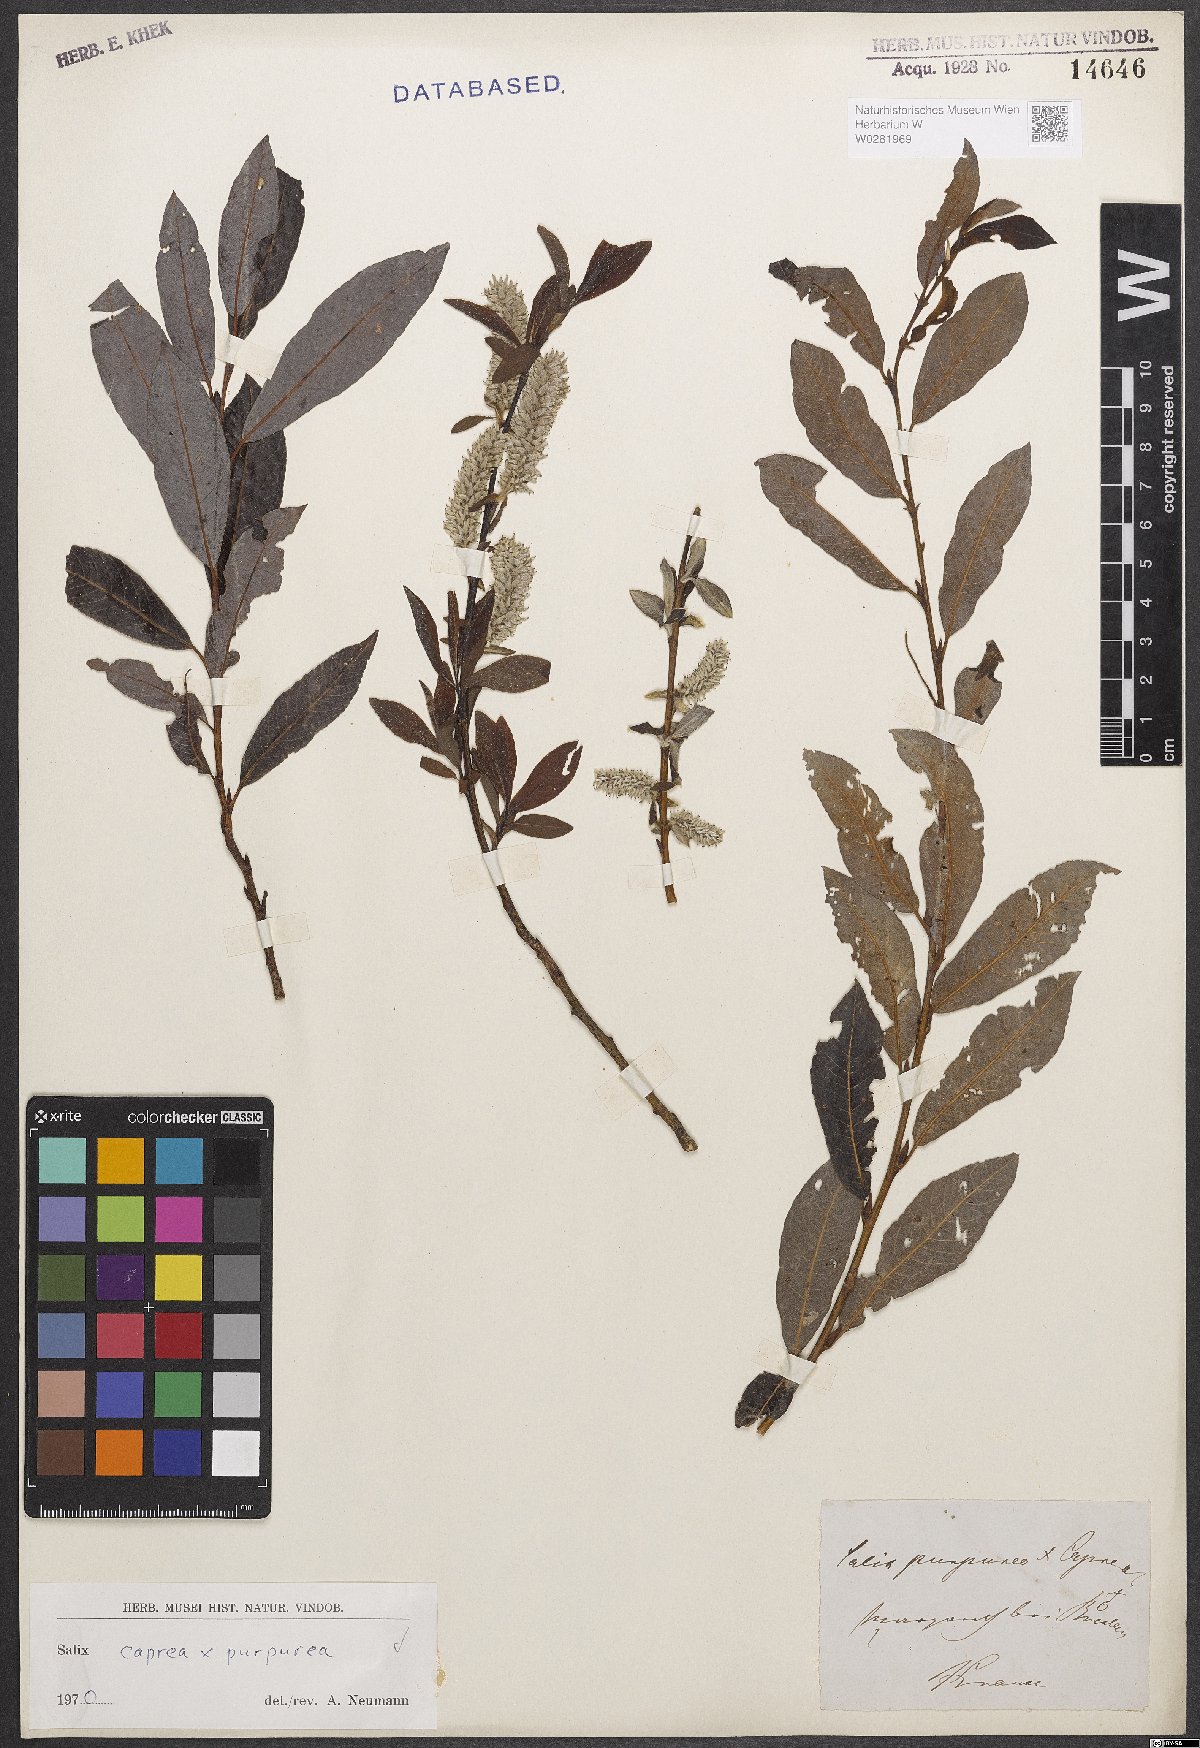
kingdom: Plantae
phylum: Tracheophyta
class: Magnoliopsida
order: Malpighiales
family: Salicaceae
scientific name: Salicaceae
